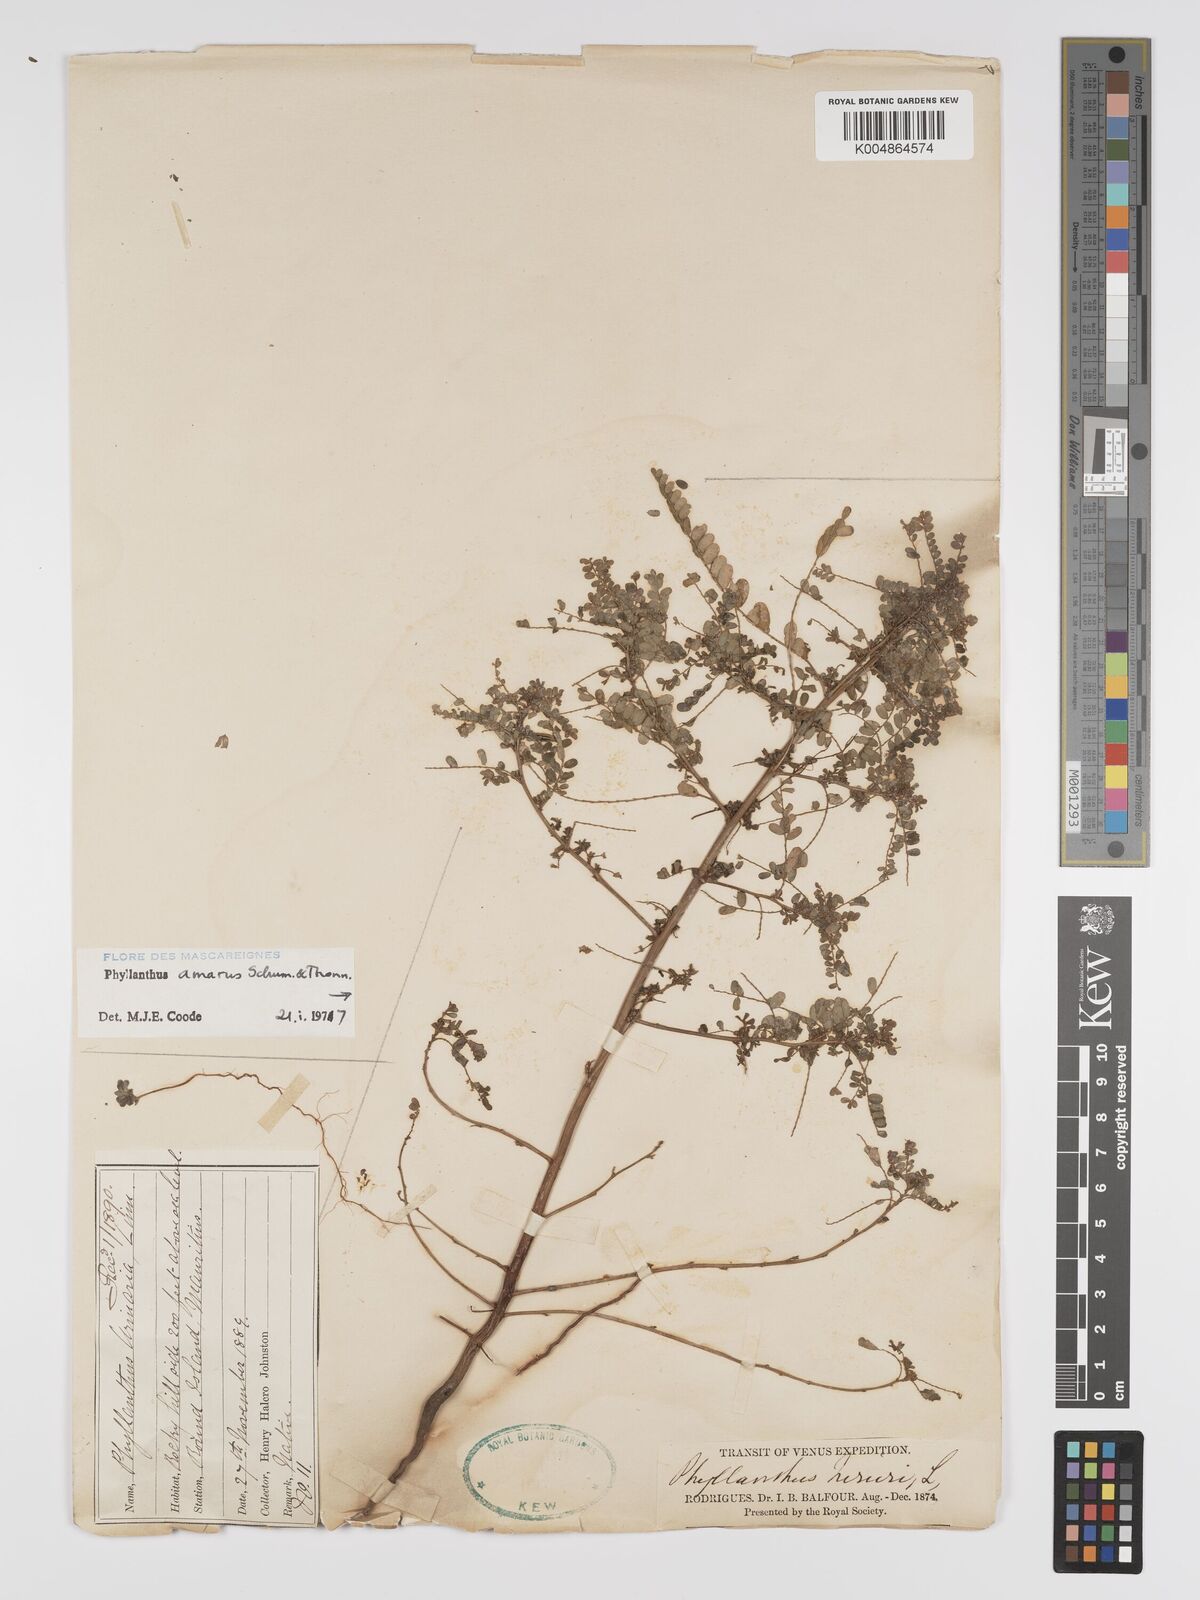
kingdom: Plantae
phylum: Tracheophyta
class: Magnoliopsida
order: Malpighiales
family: Phyllanthaceae
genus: Phyllanthus
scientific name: Phyllanthus amarus
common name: Carry me seed
